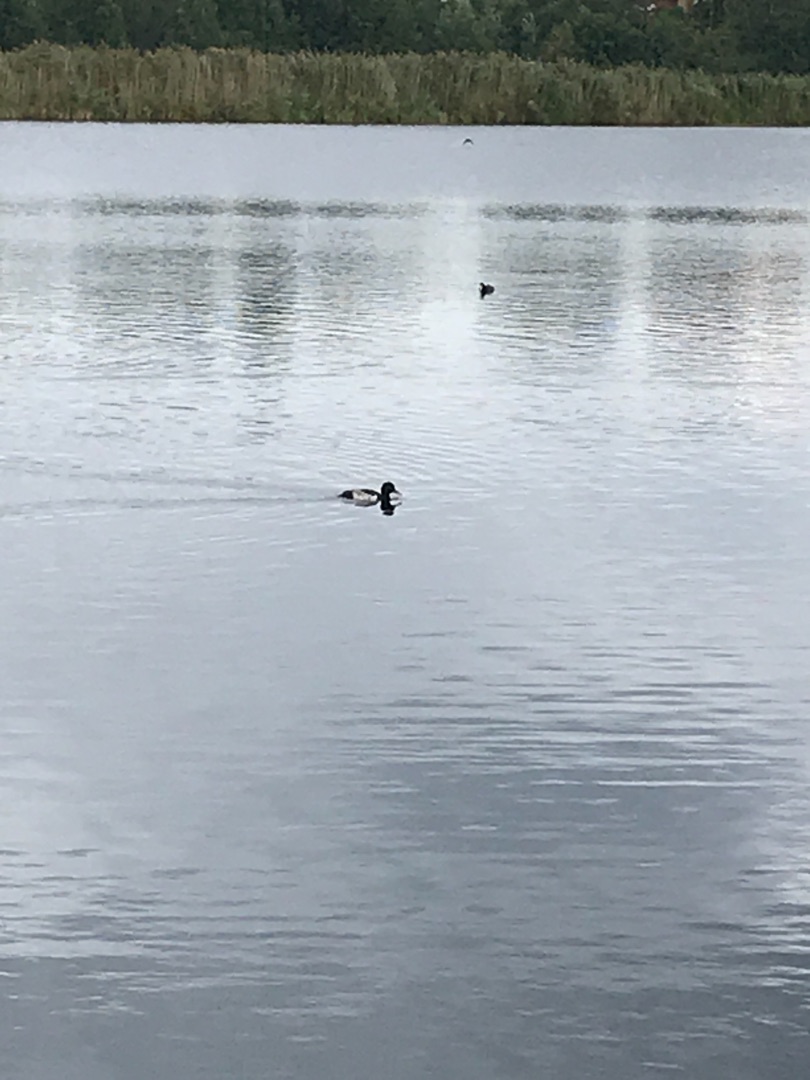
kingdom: Animalia
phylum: Chordata
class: Aves
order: Anseriformes
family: Anatidae
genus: Aythya
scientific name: Aythya fuligula
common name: Troldand
